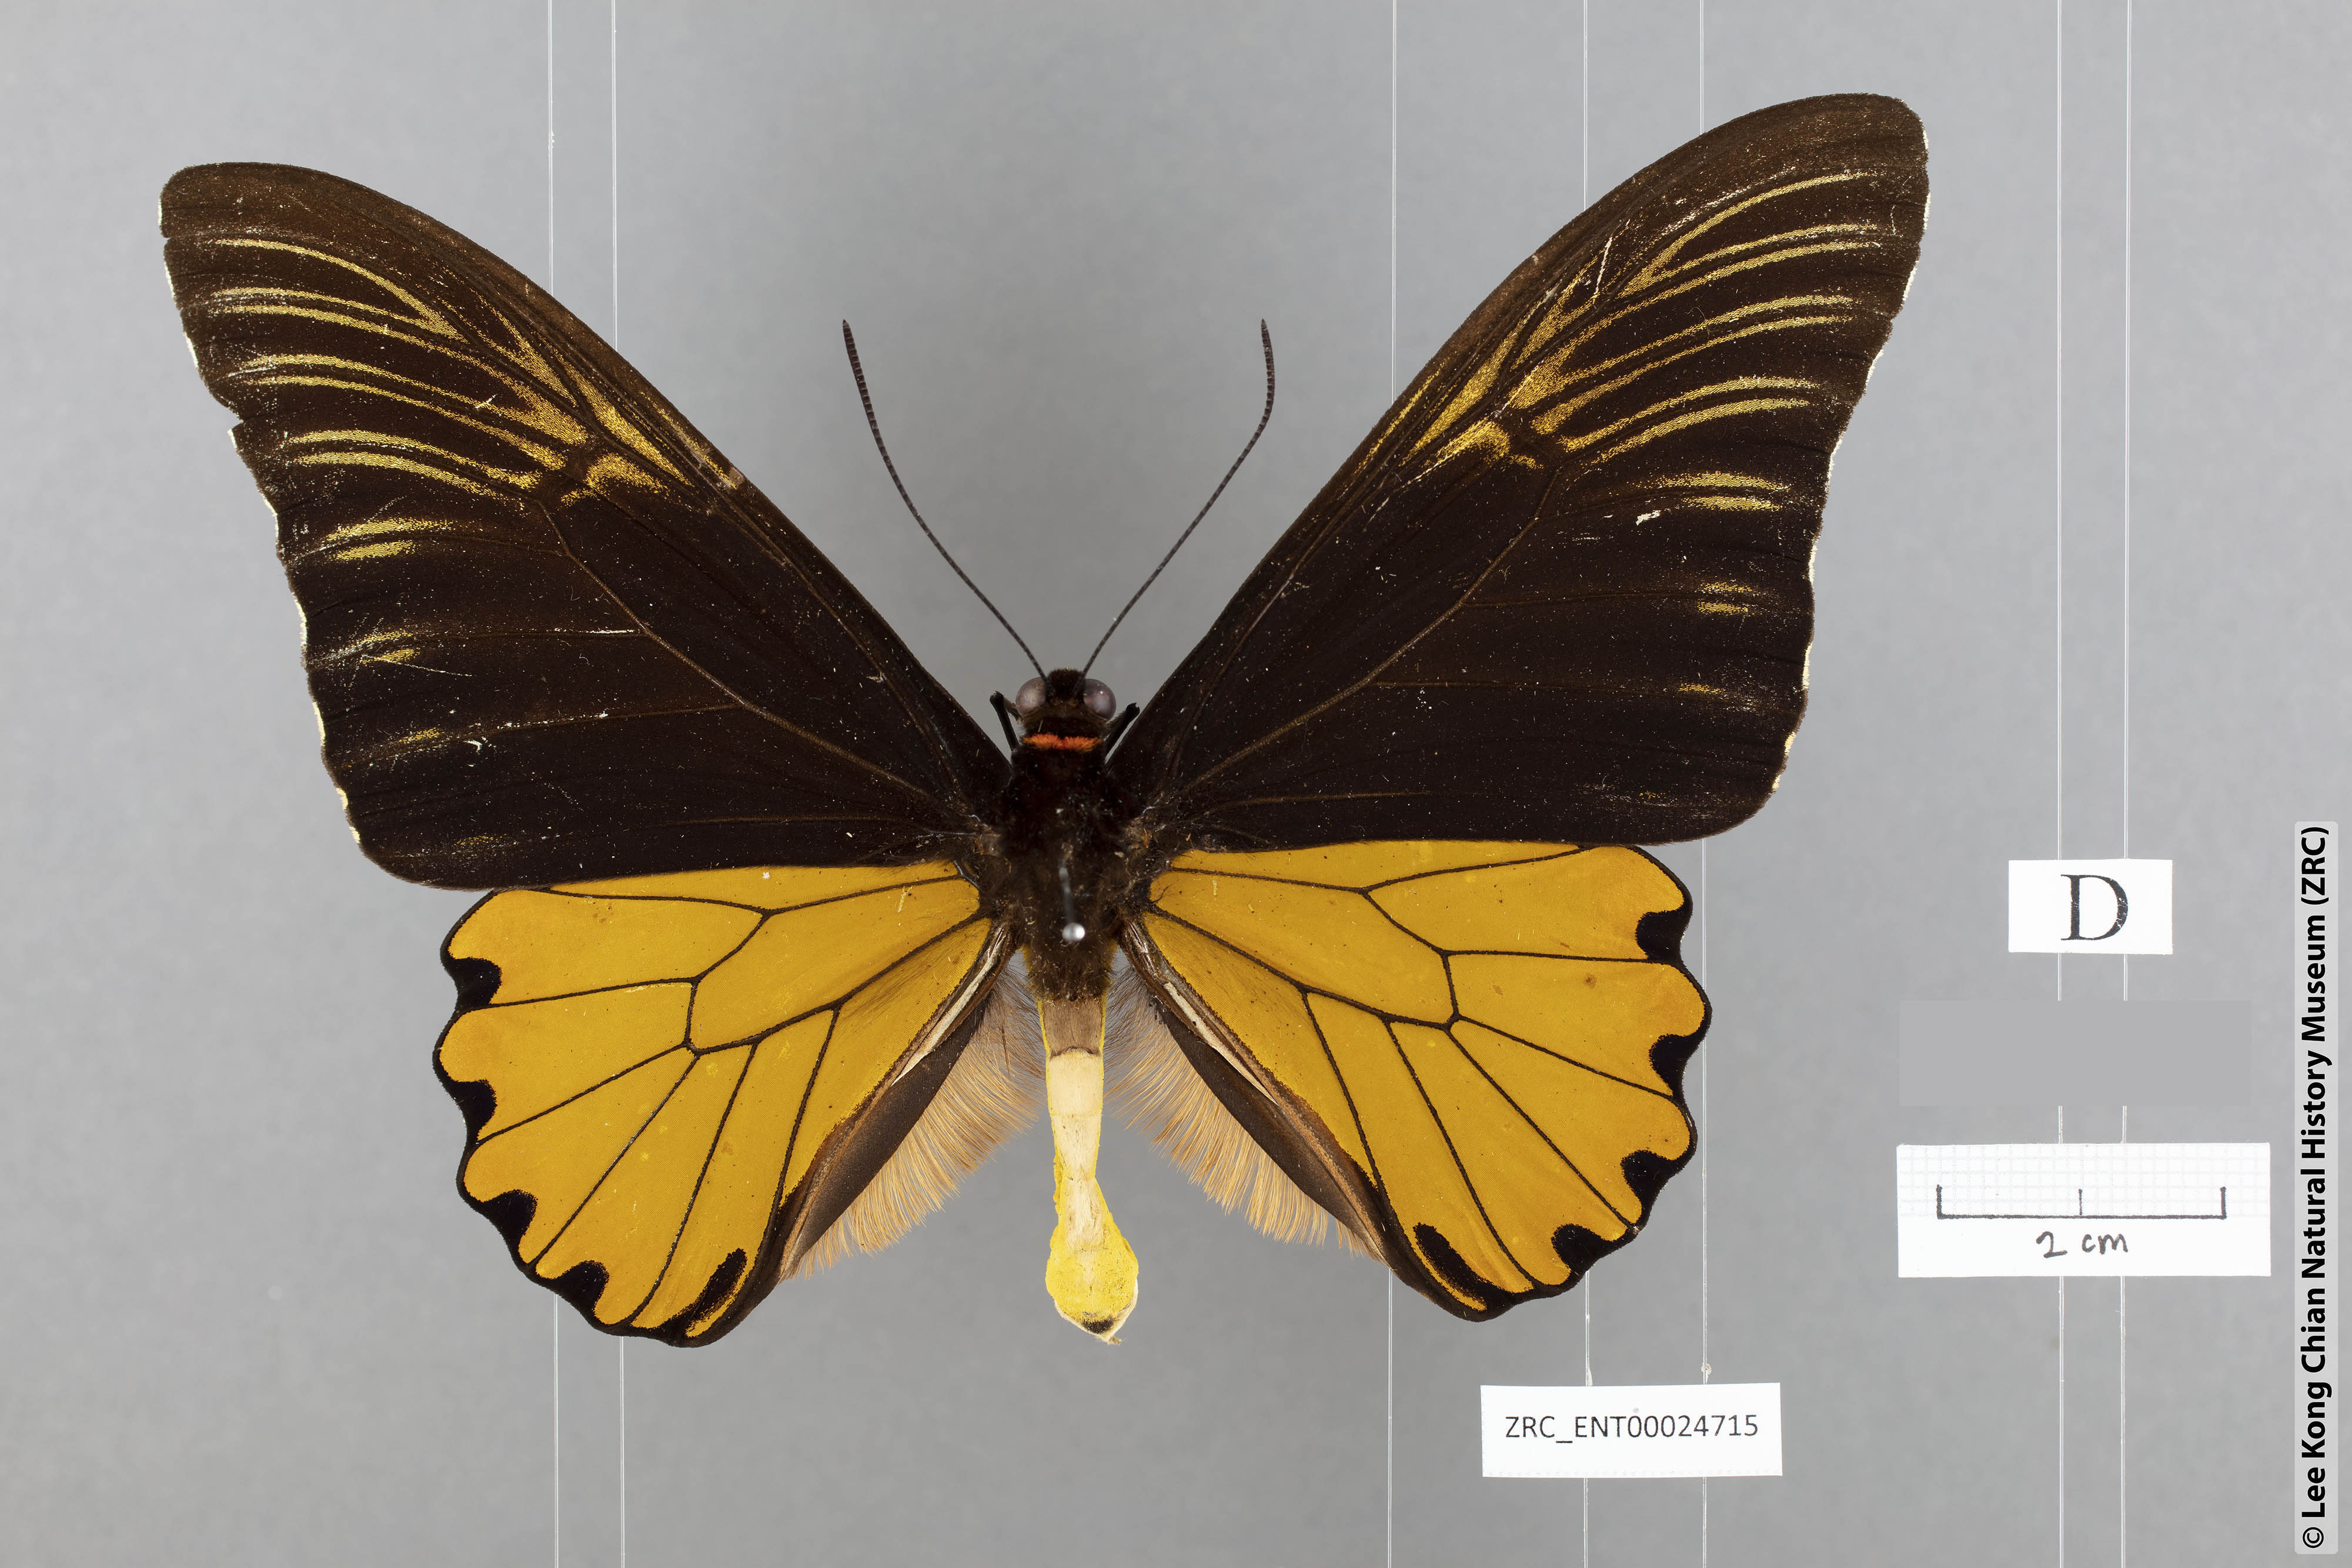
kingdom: Animalia
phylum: Arthropoda
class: Insecta
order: Lepidoptera
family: Papilionidae
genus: Troides
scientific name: Troides amphyrus
